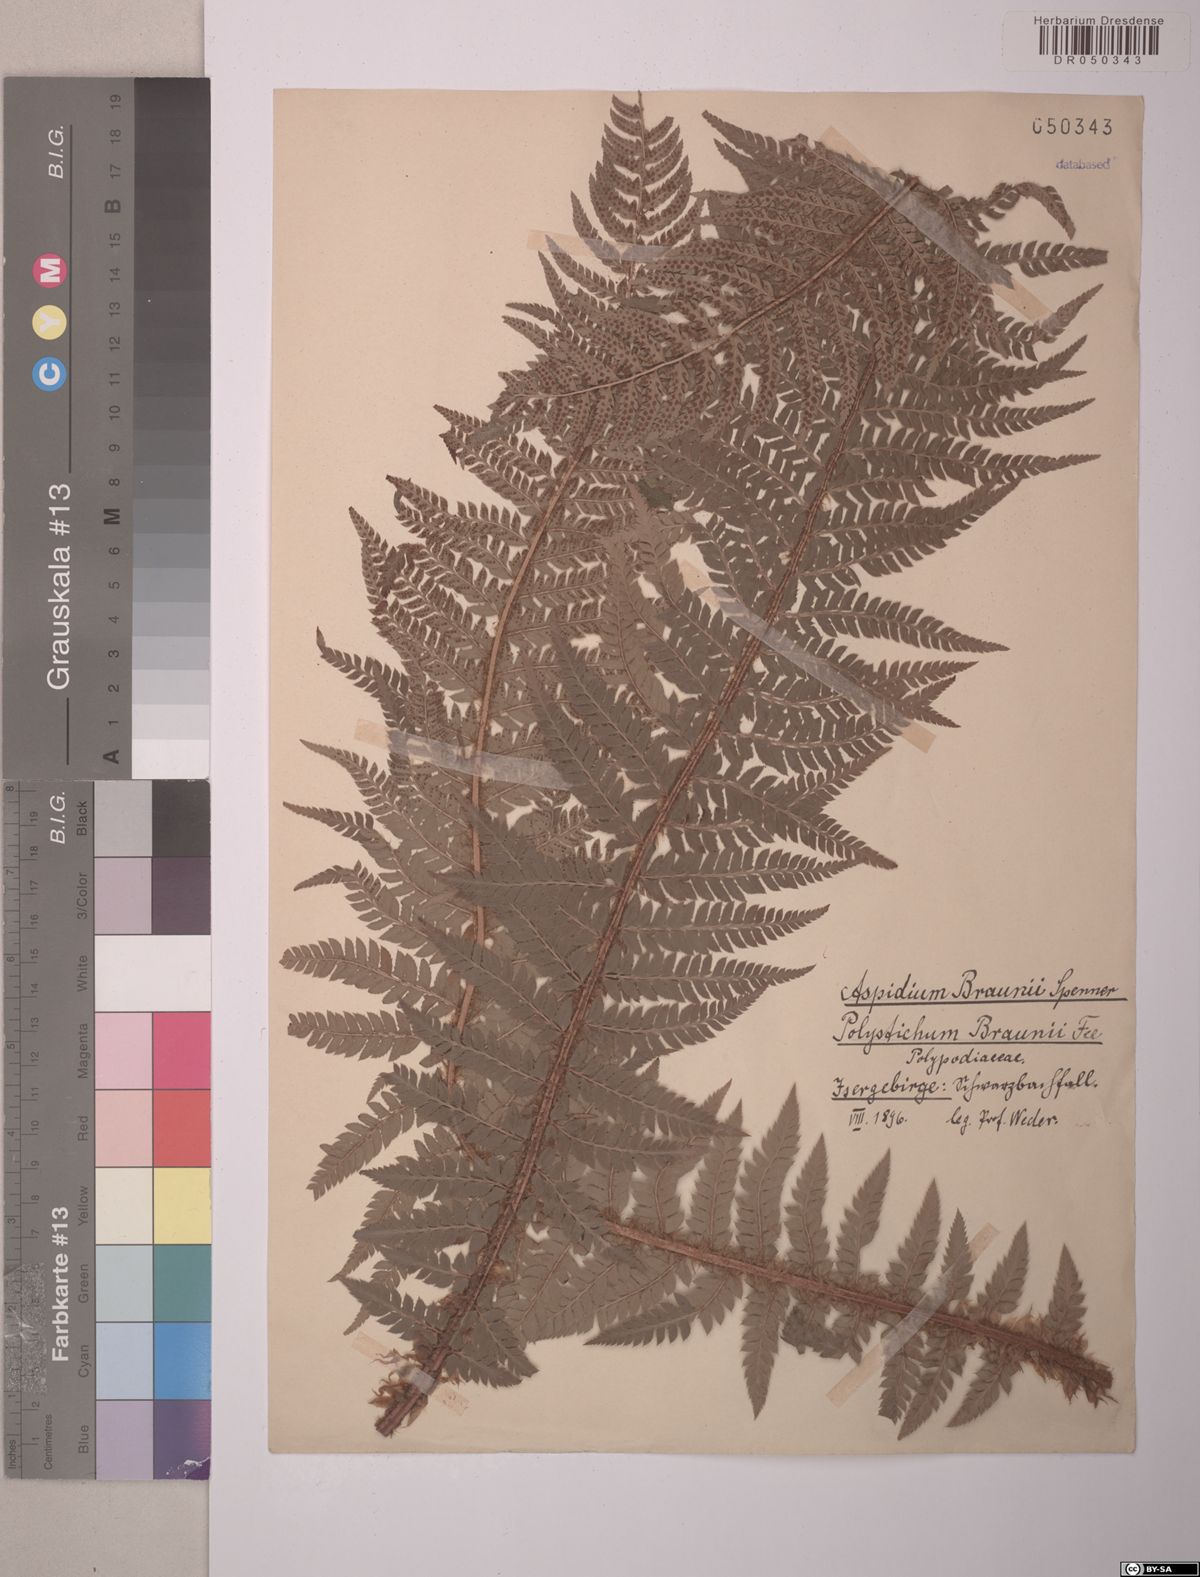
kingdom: Plantae
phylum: Tracheophyta
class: Polypodiopsida
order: Polypodiales
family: Dryopteridaceae
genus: Polystichum
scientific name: Polystichum braunii
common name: Braun's holly fern
